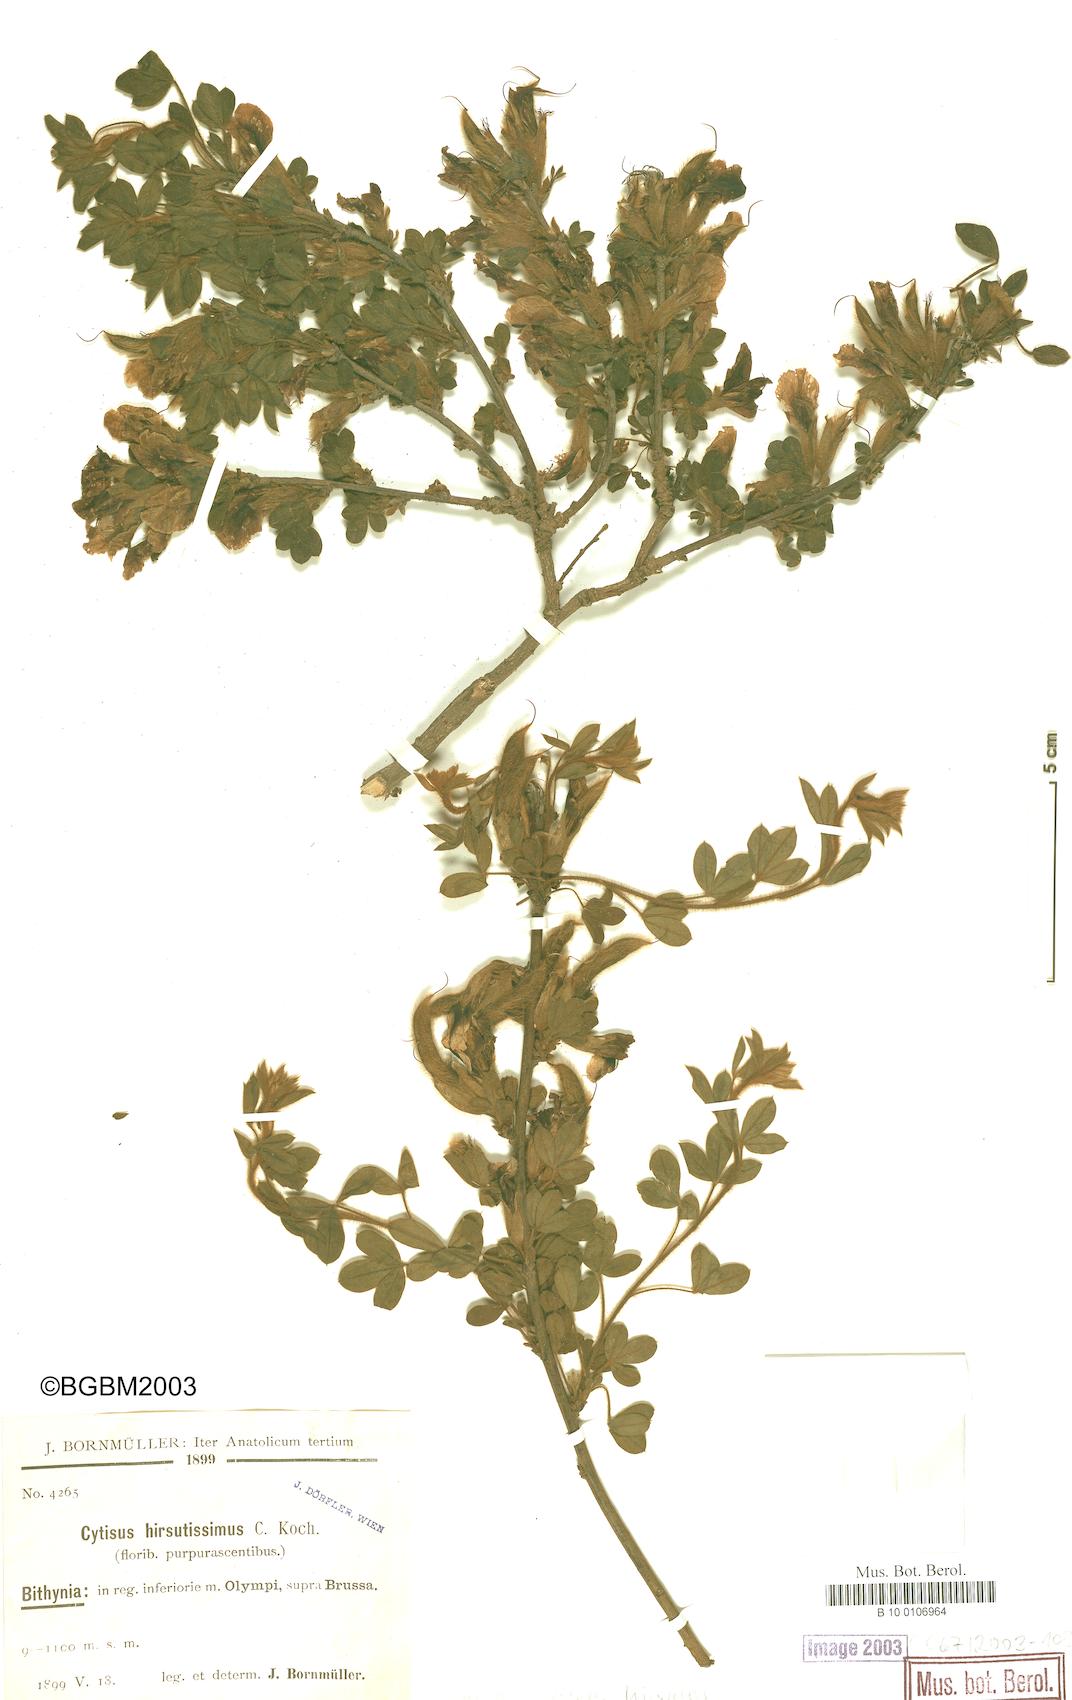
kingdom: Plantae
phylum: Tracheophyta
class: Magnoliopsida
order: Fabales
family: Fabaceae
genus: Chamaecytisus
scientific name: Chamaecytisus hirsutus
